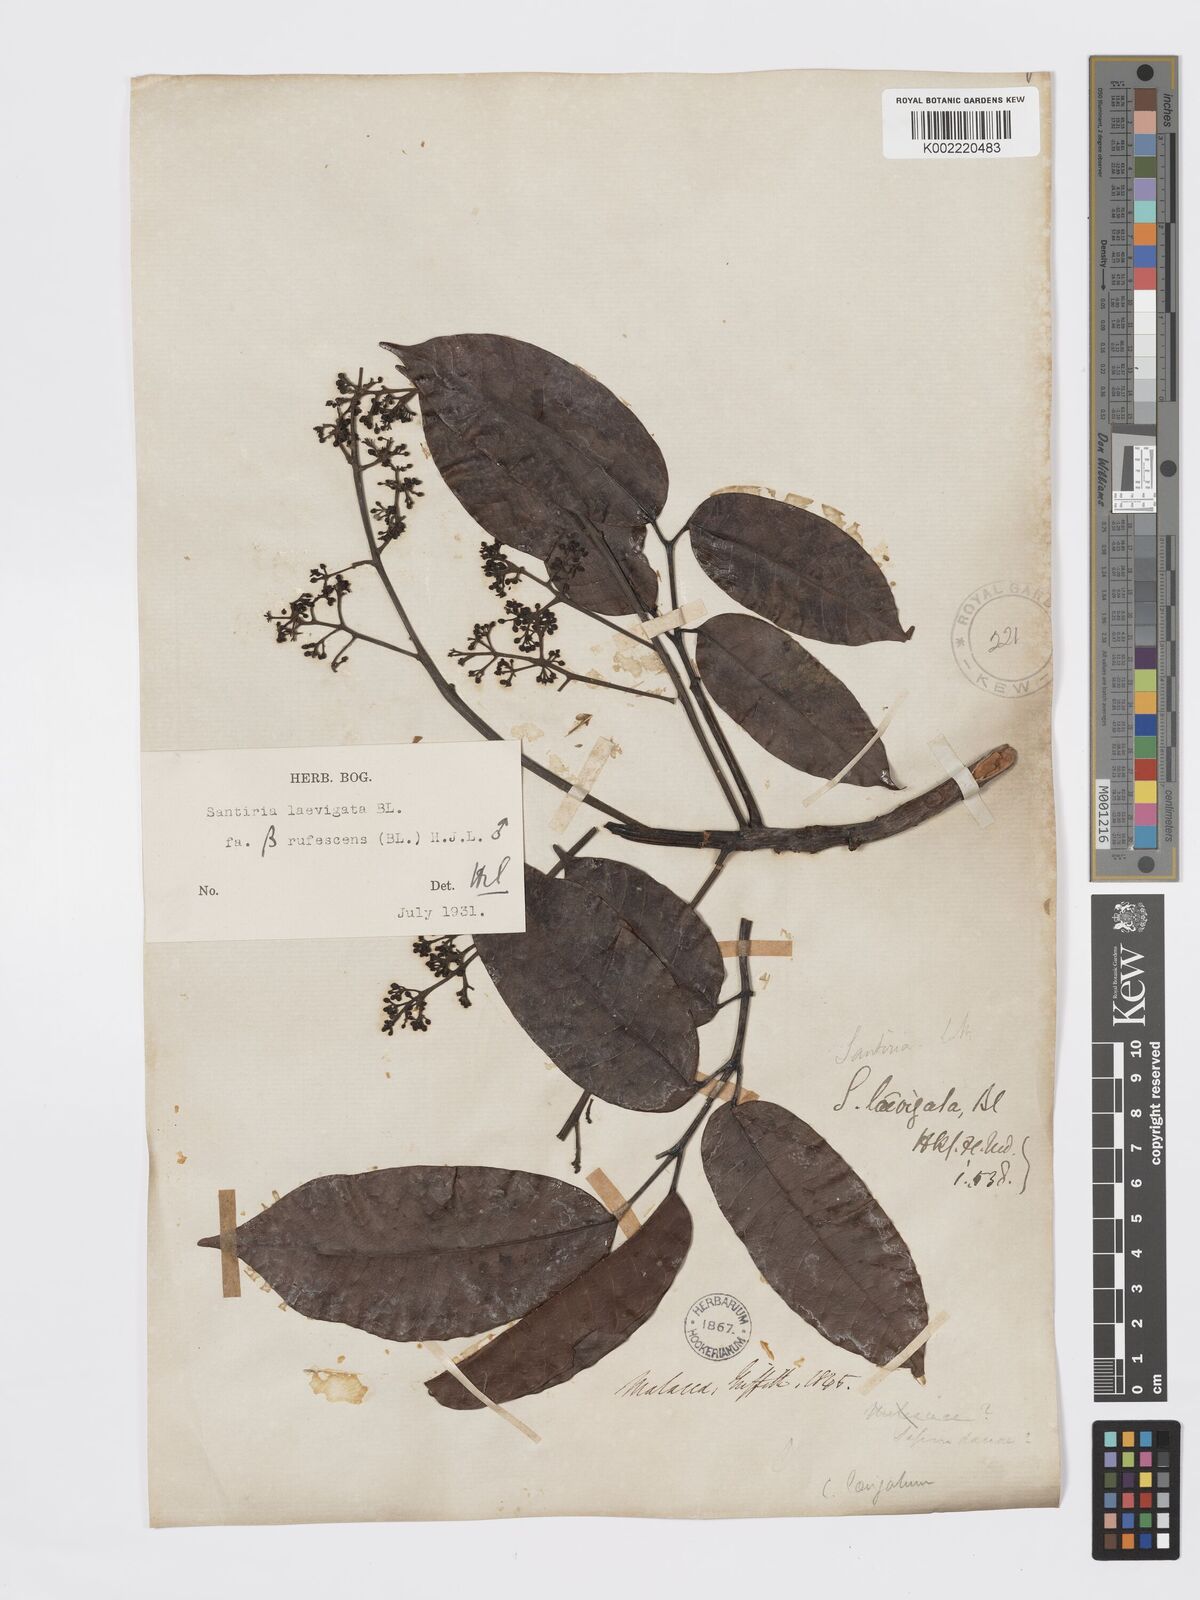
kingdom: Plantae
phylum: Tracheophyta
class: Magnoliopsida
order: Sapindales
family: Burseraceae
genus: Santiria
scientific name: Santiria laevigata
